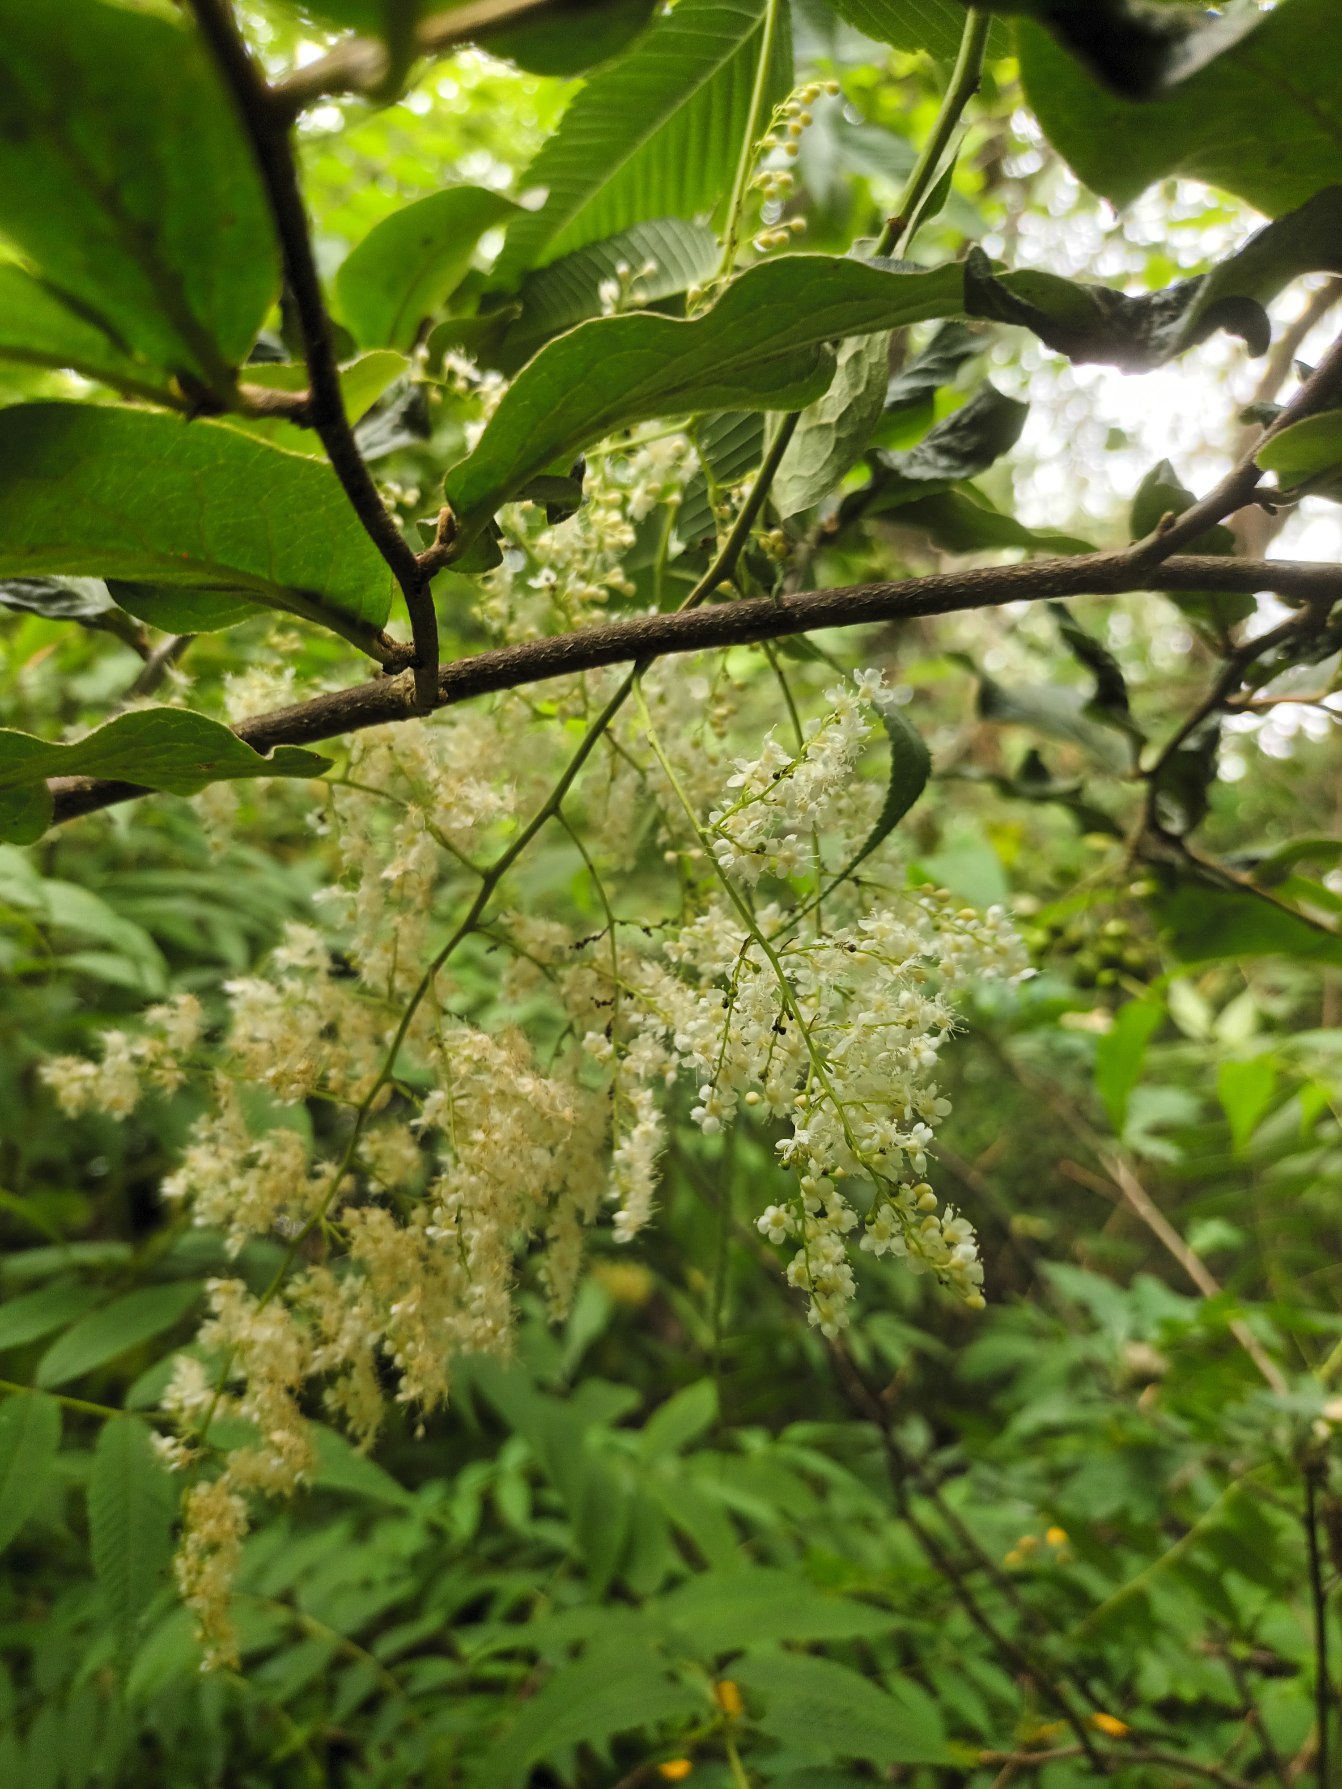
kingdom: Plantae
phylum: Tracheophyta
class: Magnoliopsida
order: Rosales
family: Rosaceae
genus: Sorbaria
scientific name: Sorbaria tomentosa
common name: Kashmir-tusindtop
